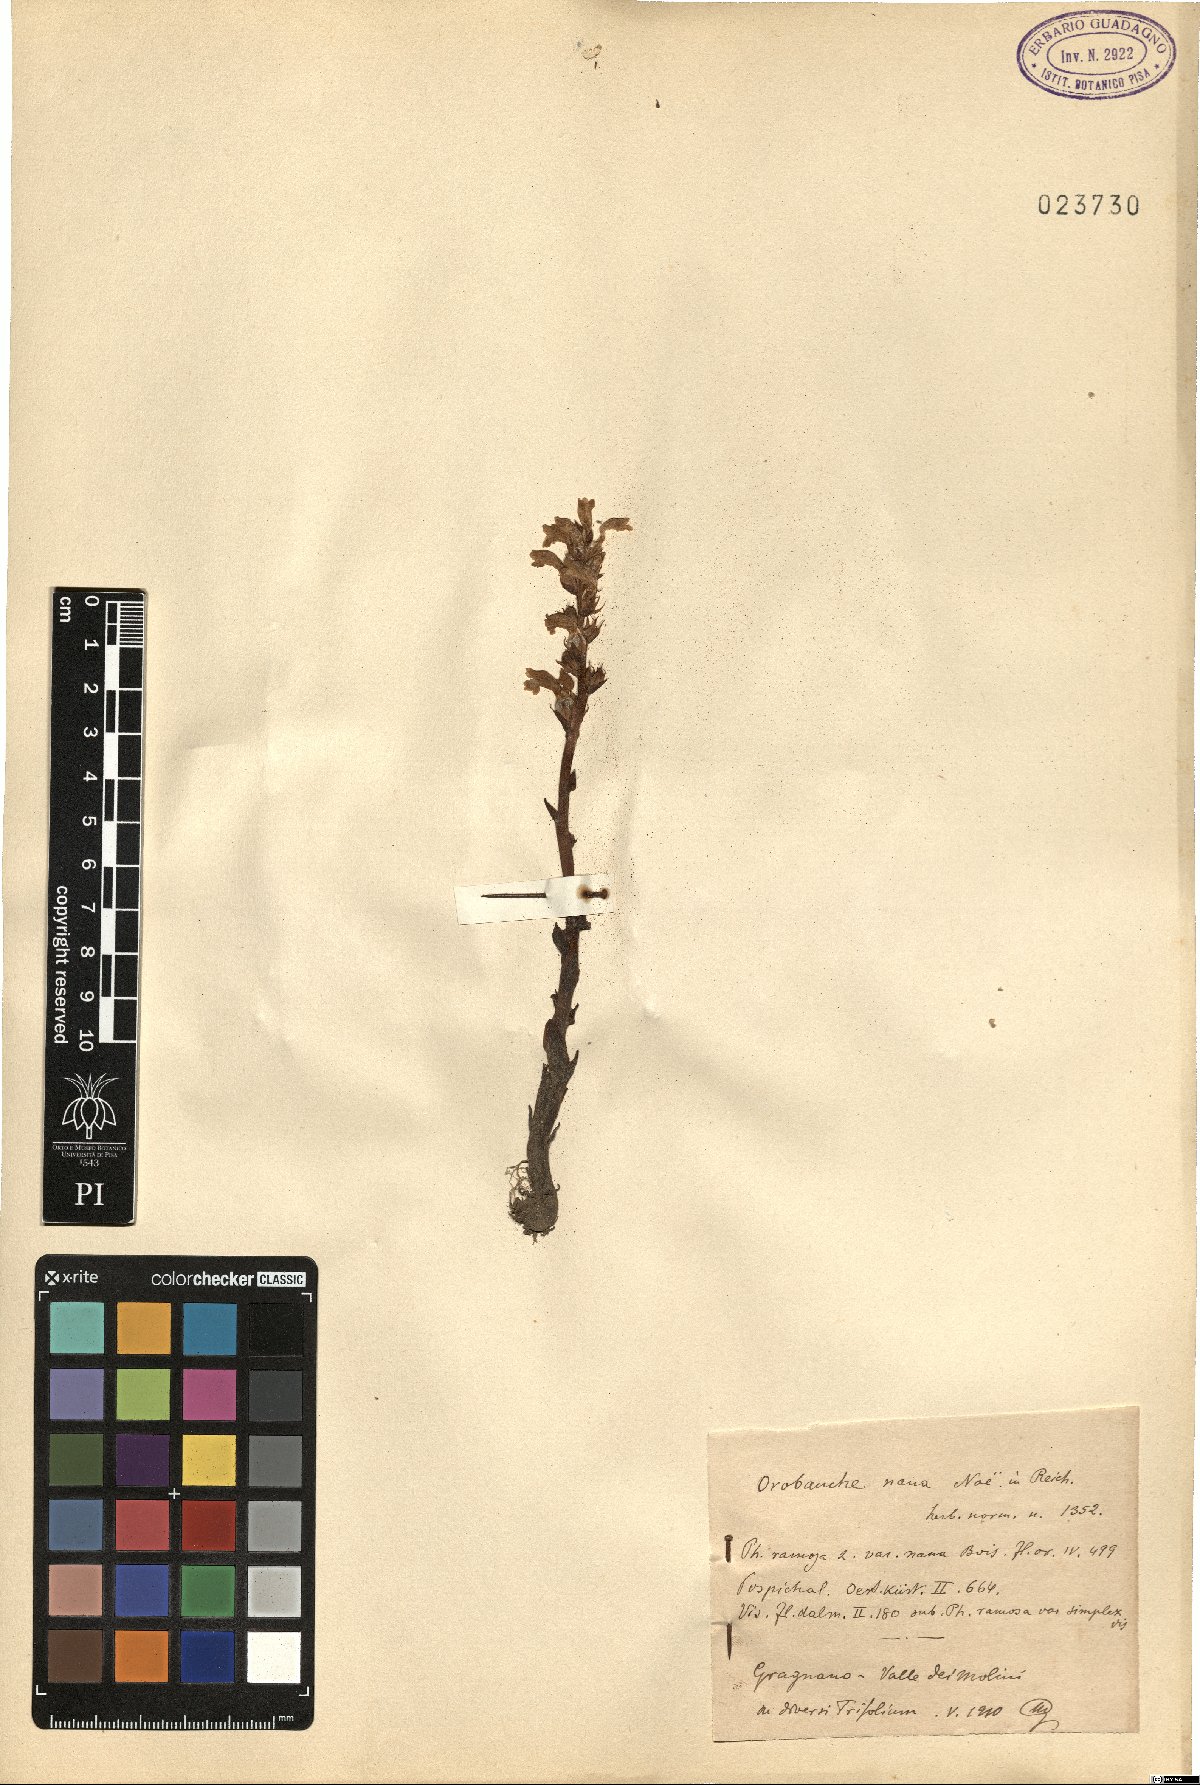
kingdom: Plantae
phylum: Tracheophyta
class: Magnoliopsida
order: Lamiales
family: Orobanchaceae
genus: Phelipanche
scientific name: Phelipanche mutelii
